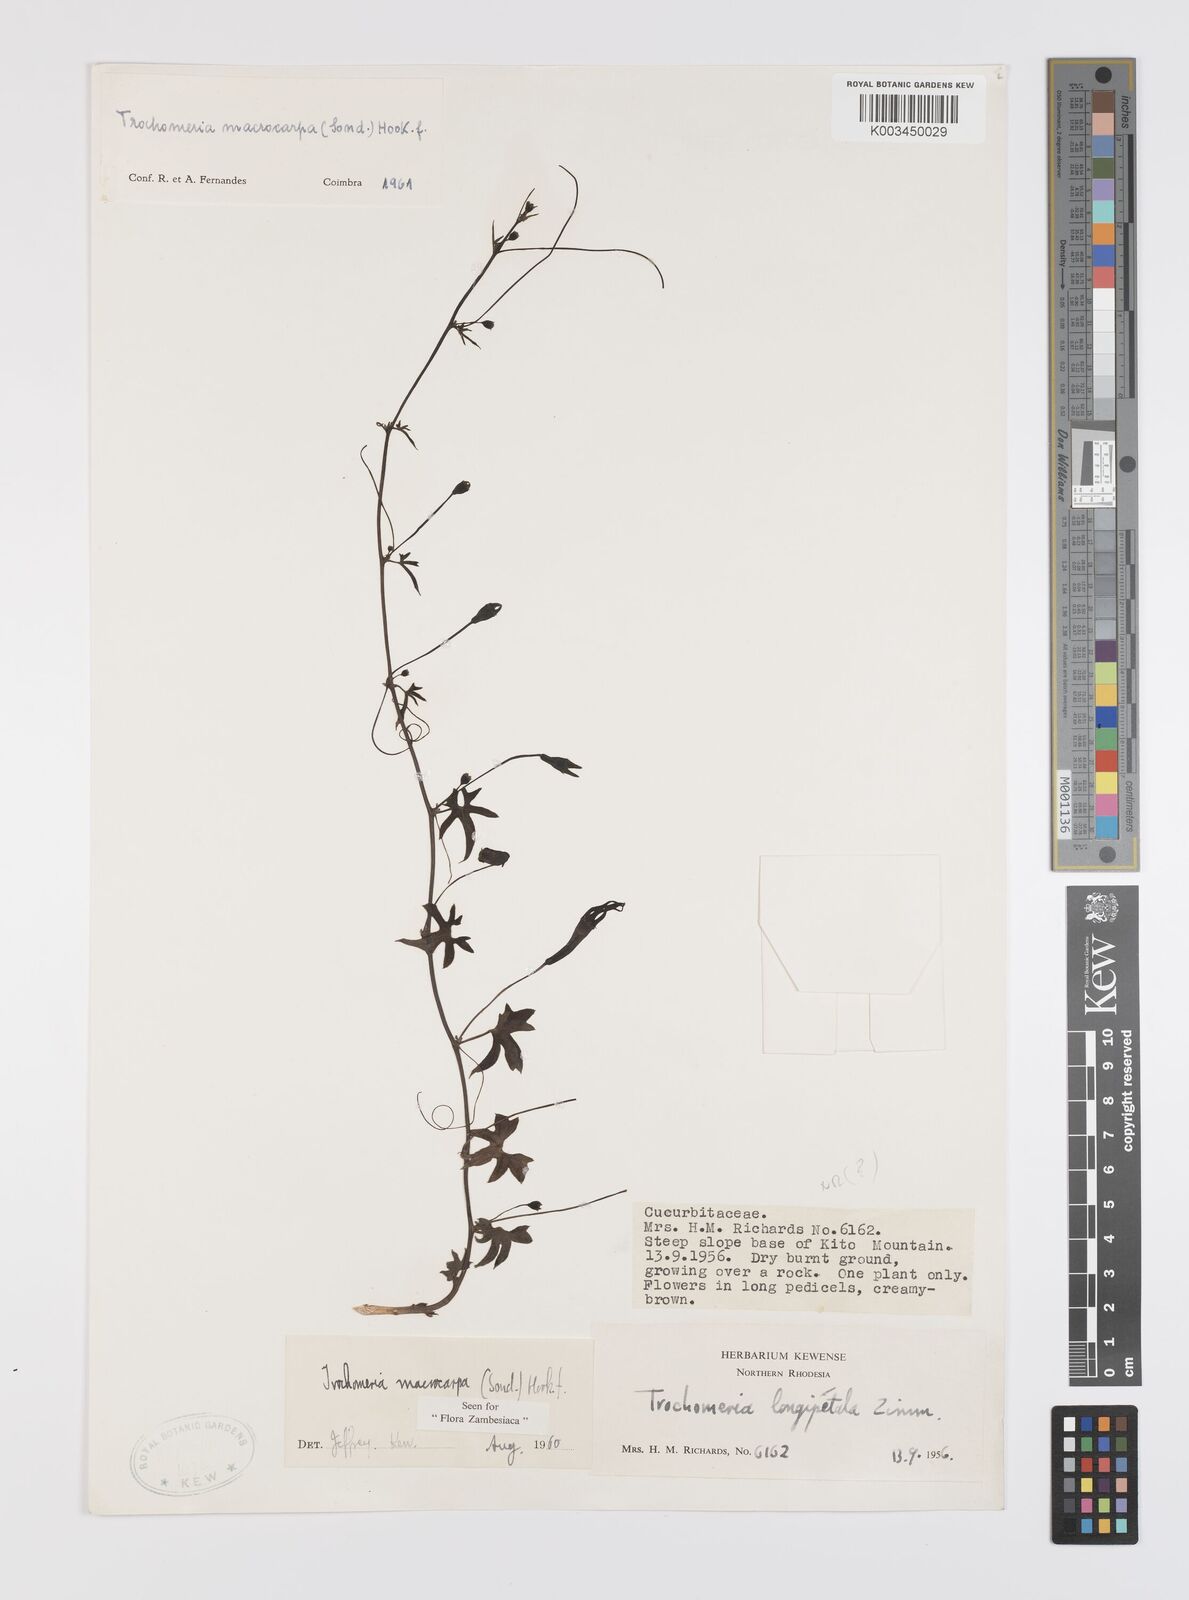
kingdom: Plantae
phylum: Tracheophyta
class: Magnoliopsida
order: Cucurbitales
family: Cucurbitaceae
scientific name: Cucurbitaceae
